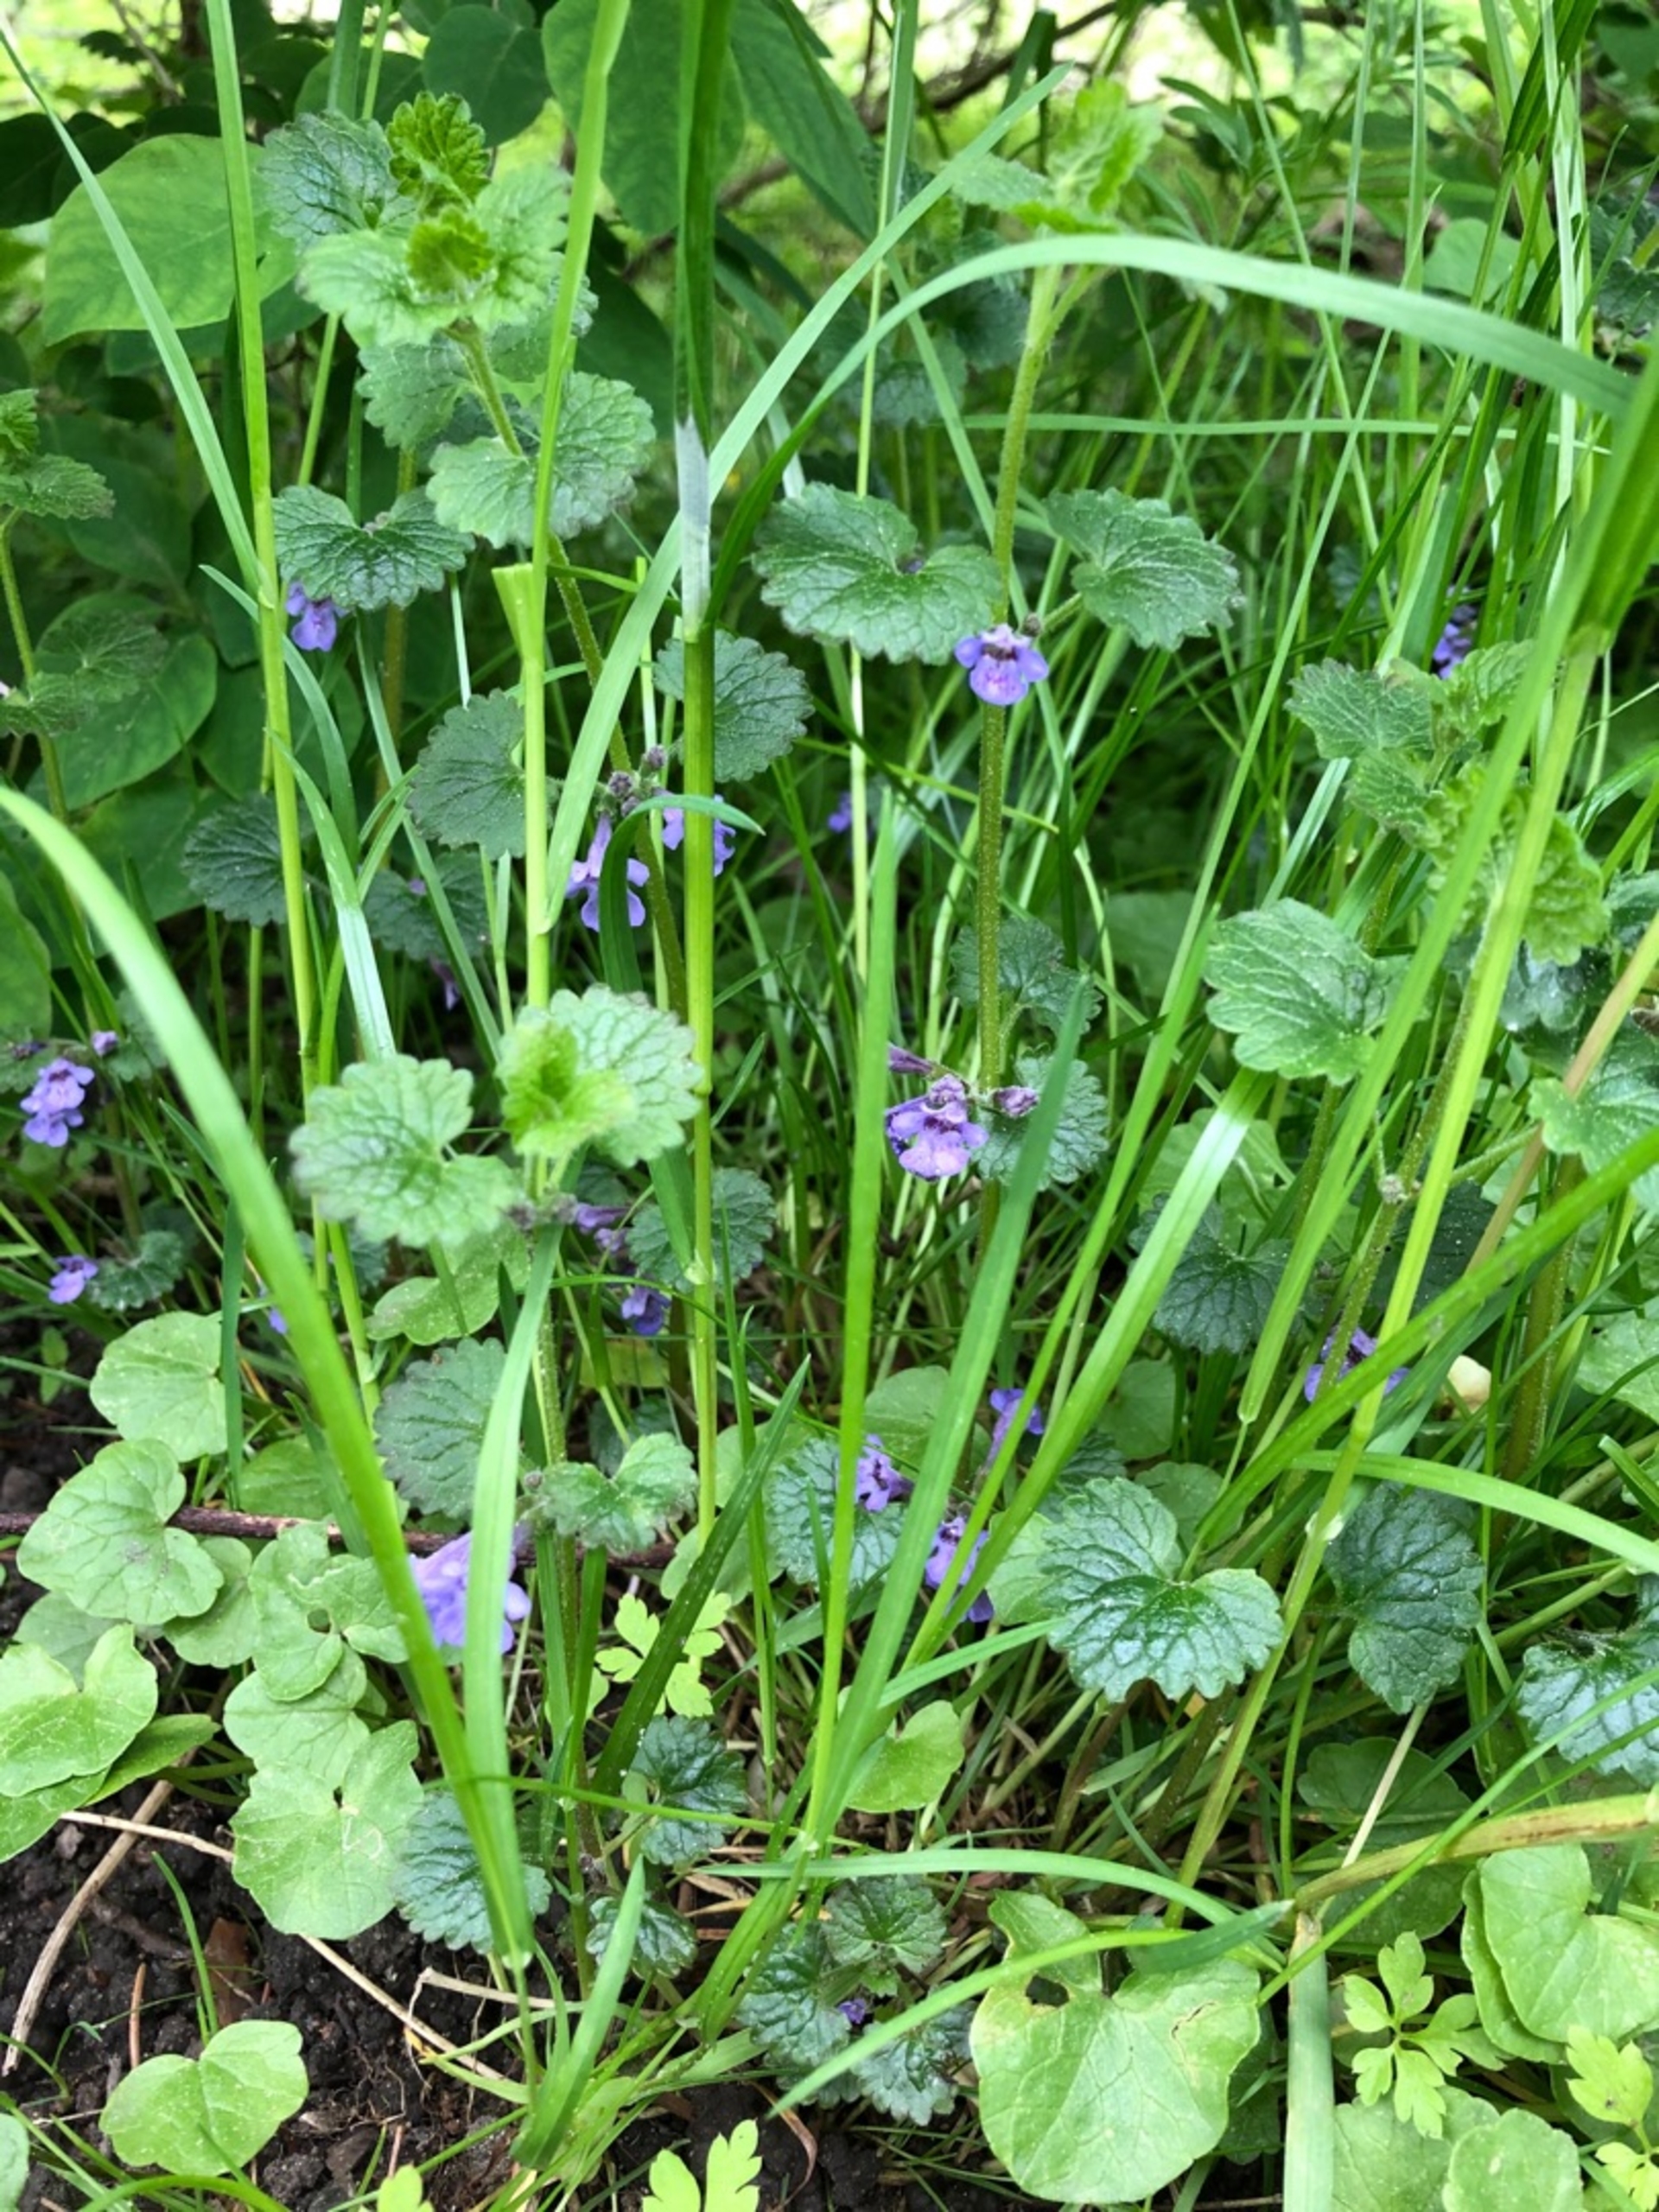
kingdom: Plantae
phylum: Tracheophyta
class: Magnoliopsida
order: Lamiales
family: Lamiaceae
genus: Glechoma
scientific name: Glechoma hederacea
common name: Korsknap
